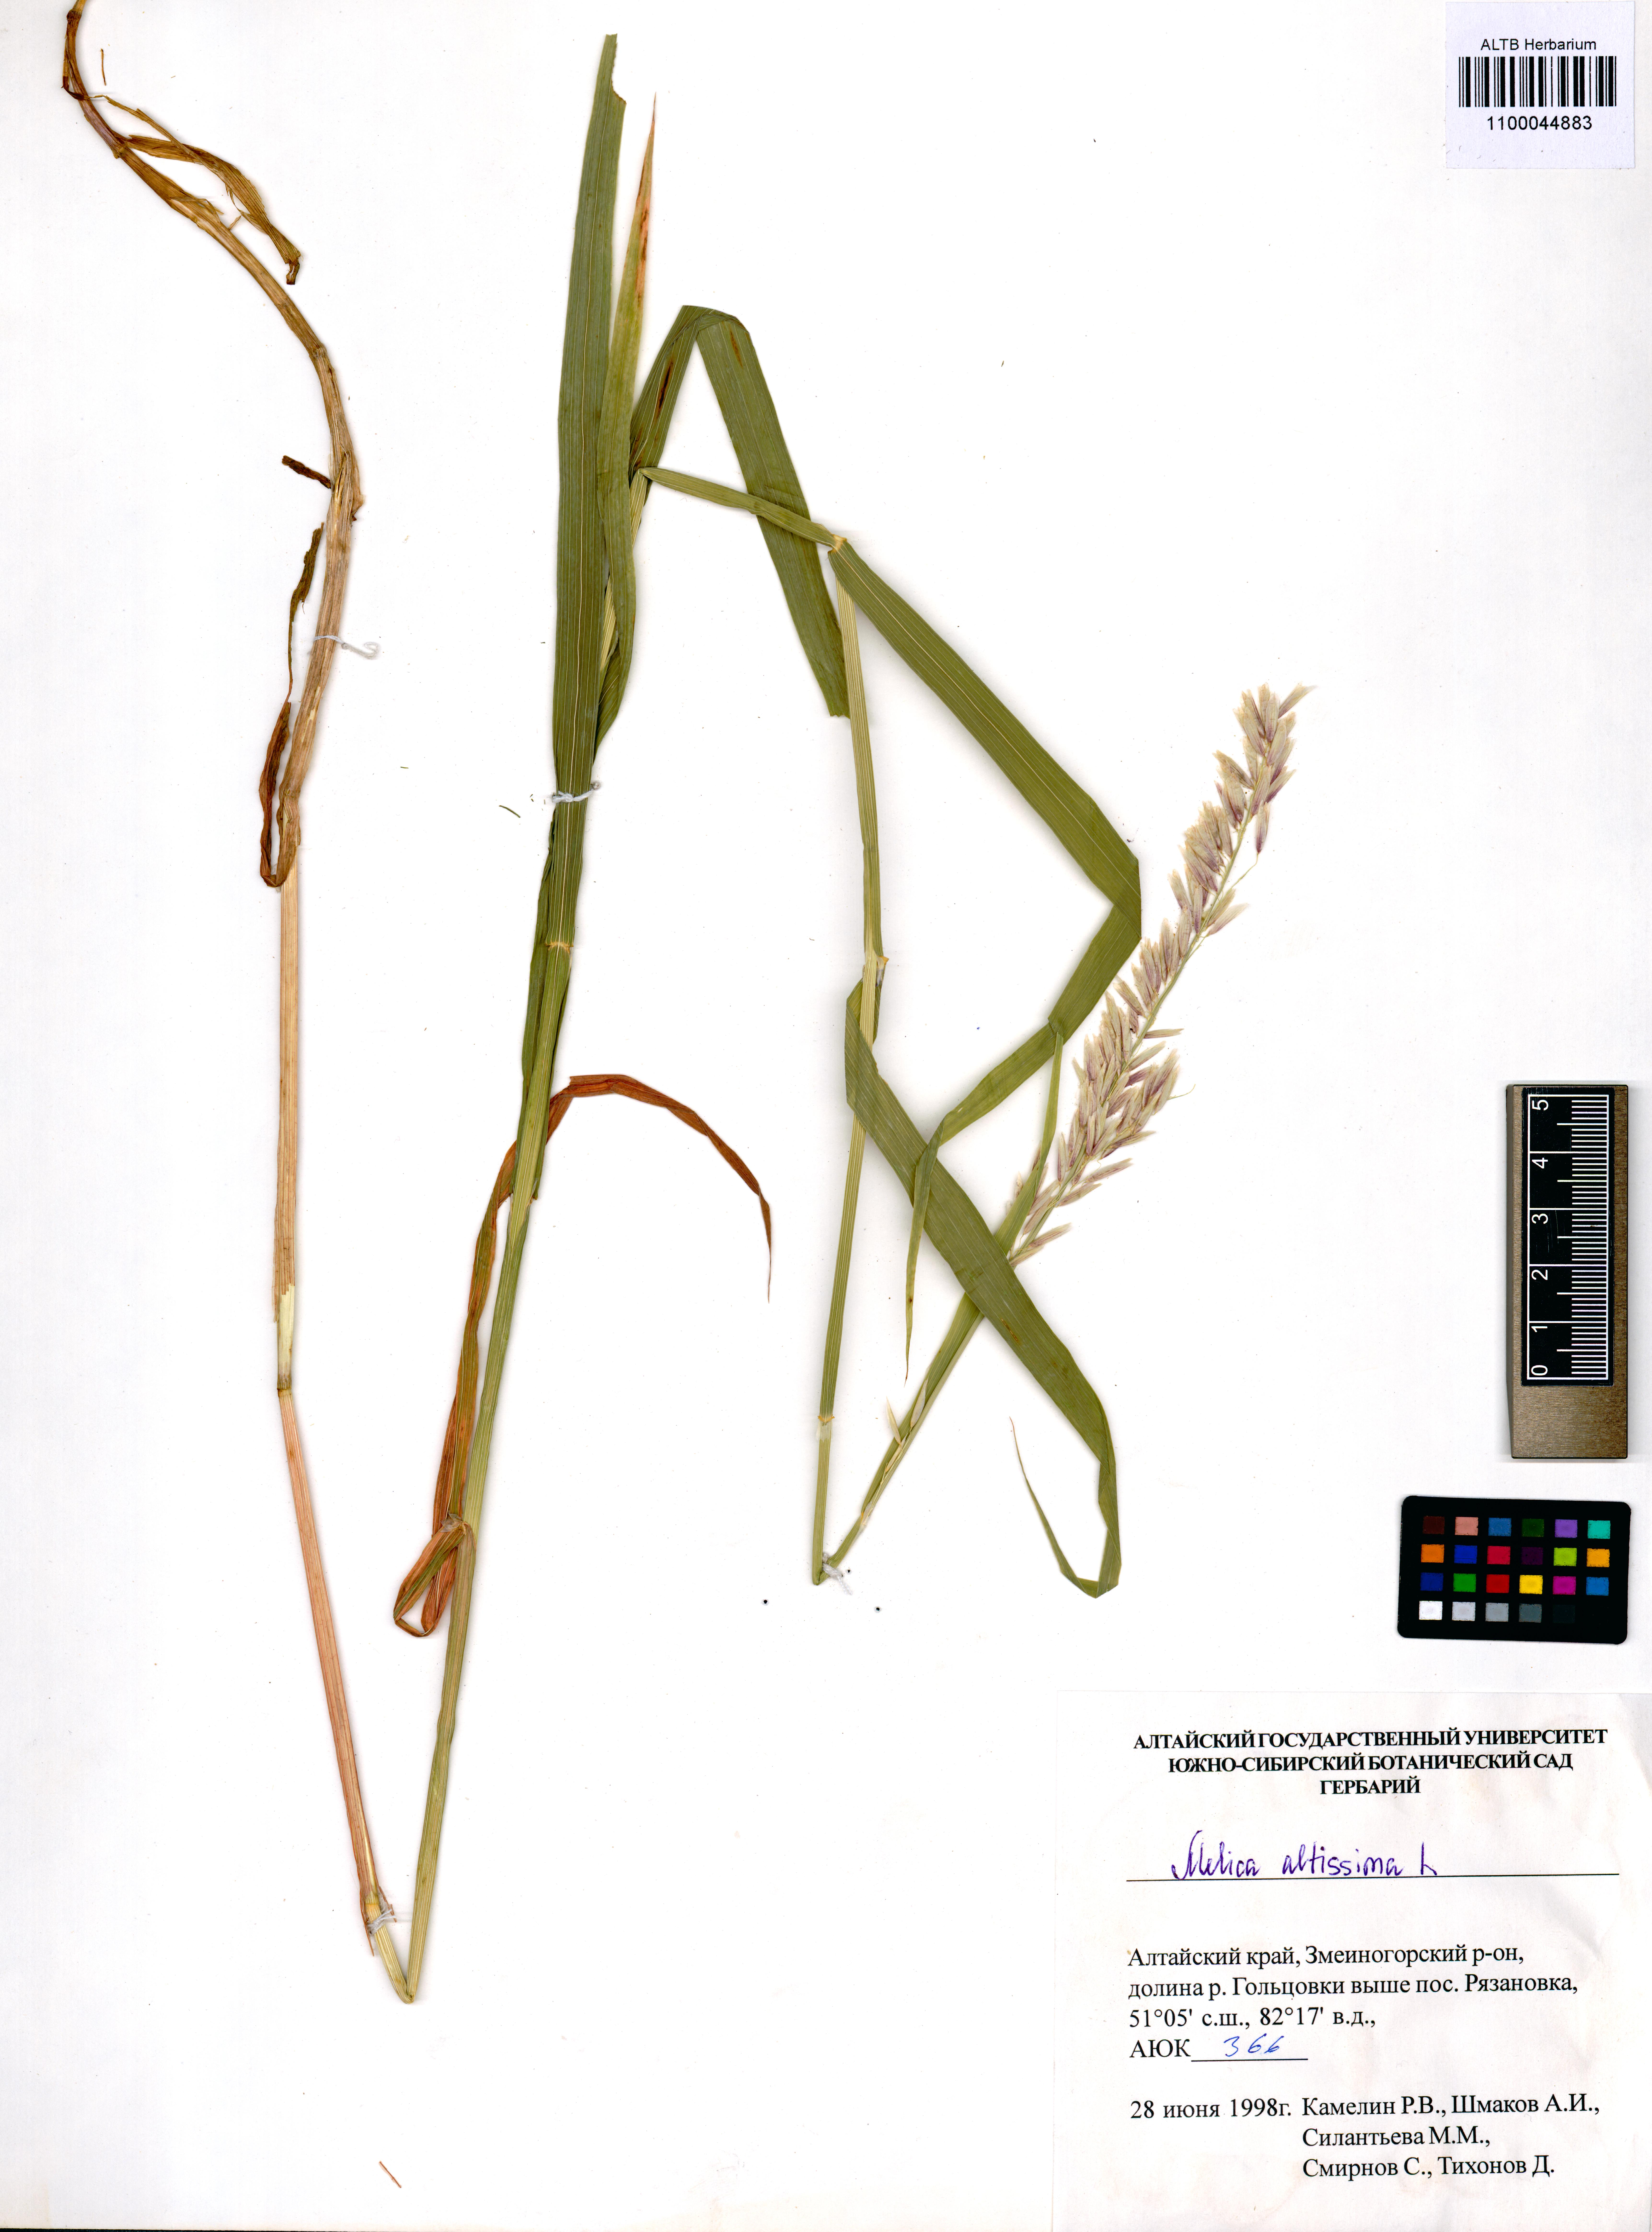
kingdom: Plantae
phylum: Tracheophyta
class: Liliopsida
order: Poales
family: Poaceae
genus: Melica
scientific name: Melica altissima
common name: Siberian melicgrass
